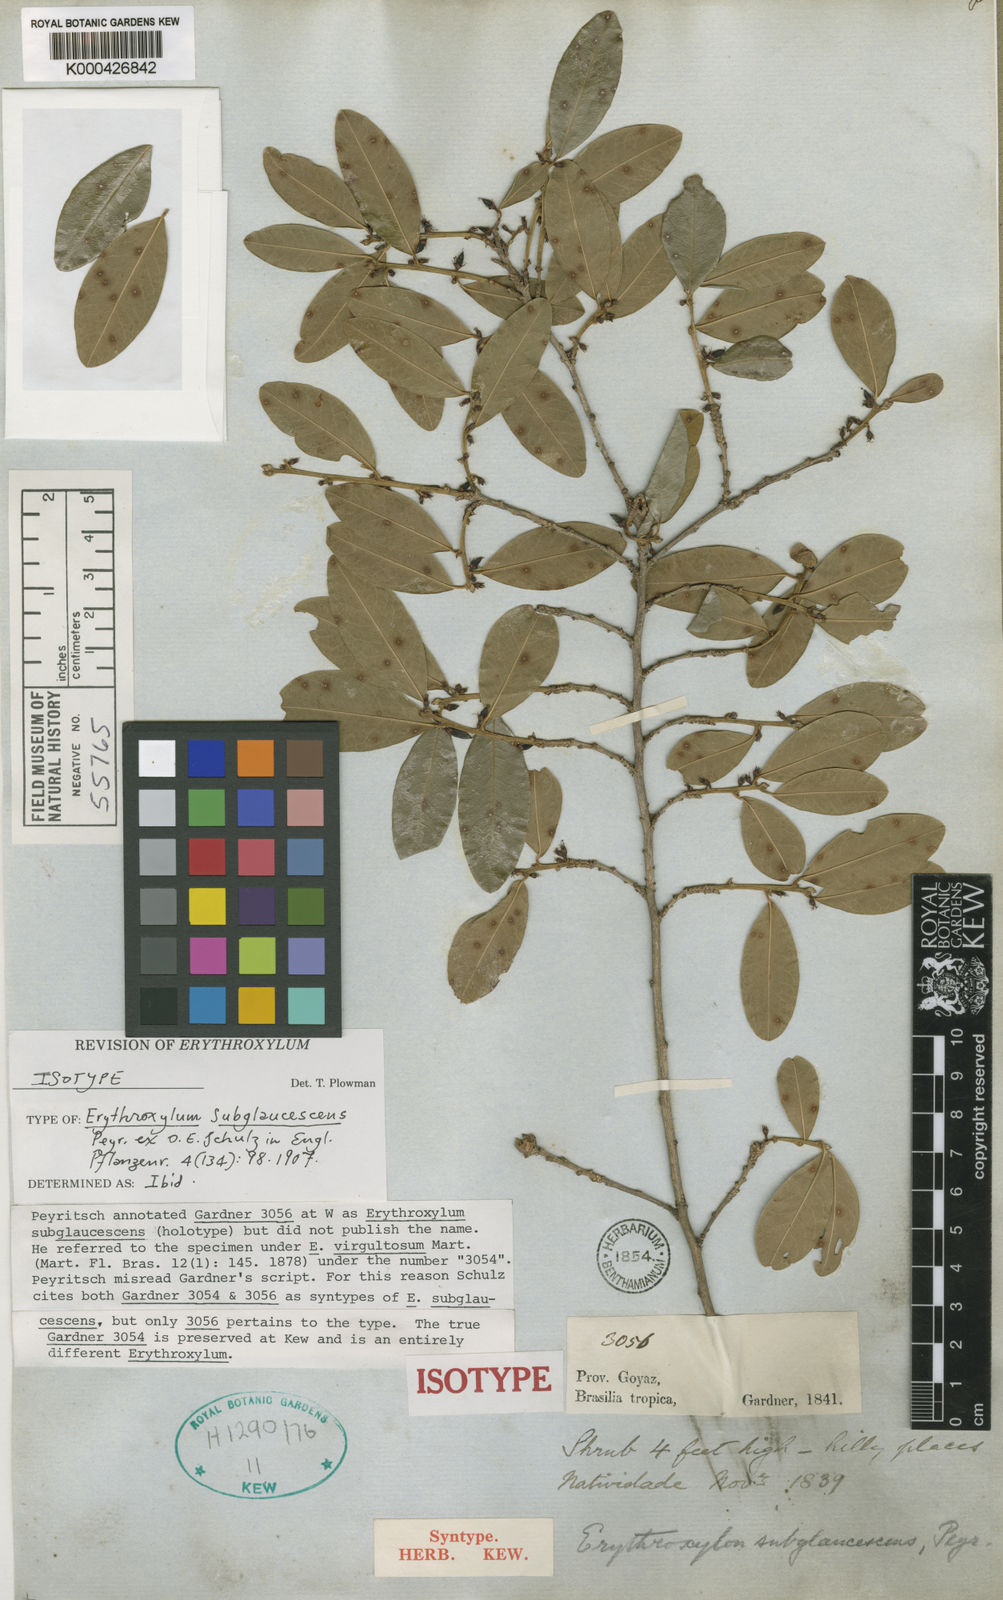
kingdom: Plantae
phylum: Tracheophyta
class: Magnoliopsida
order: Malpighiales
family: Erythroxylaceae
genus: Erythroxylum
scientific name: Erythroxylum
